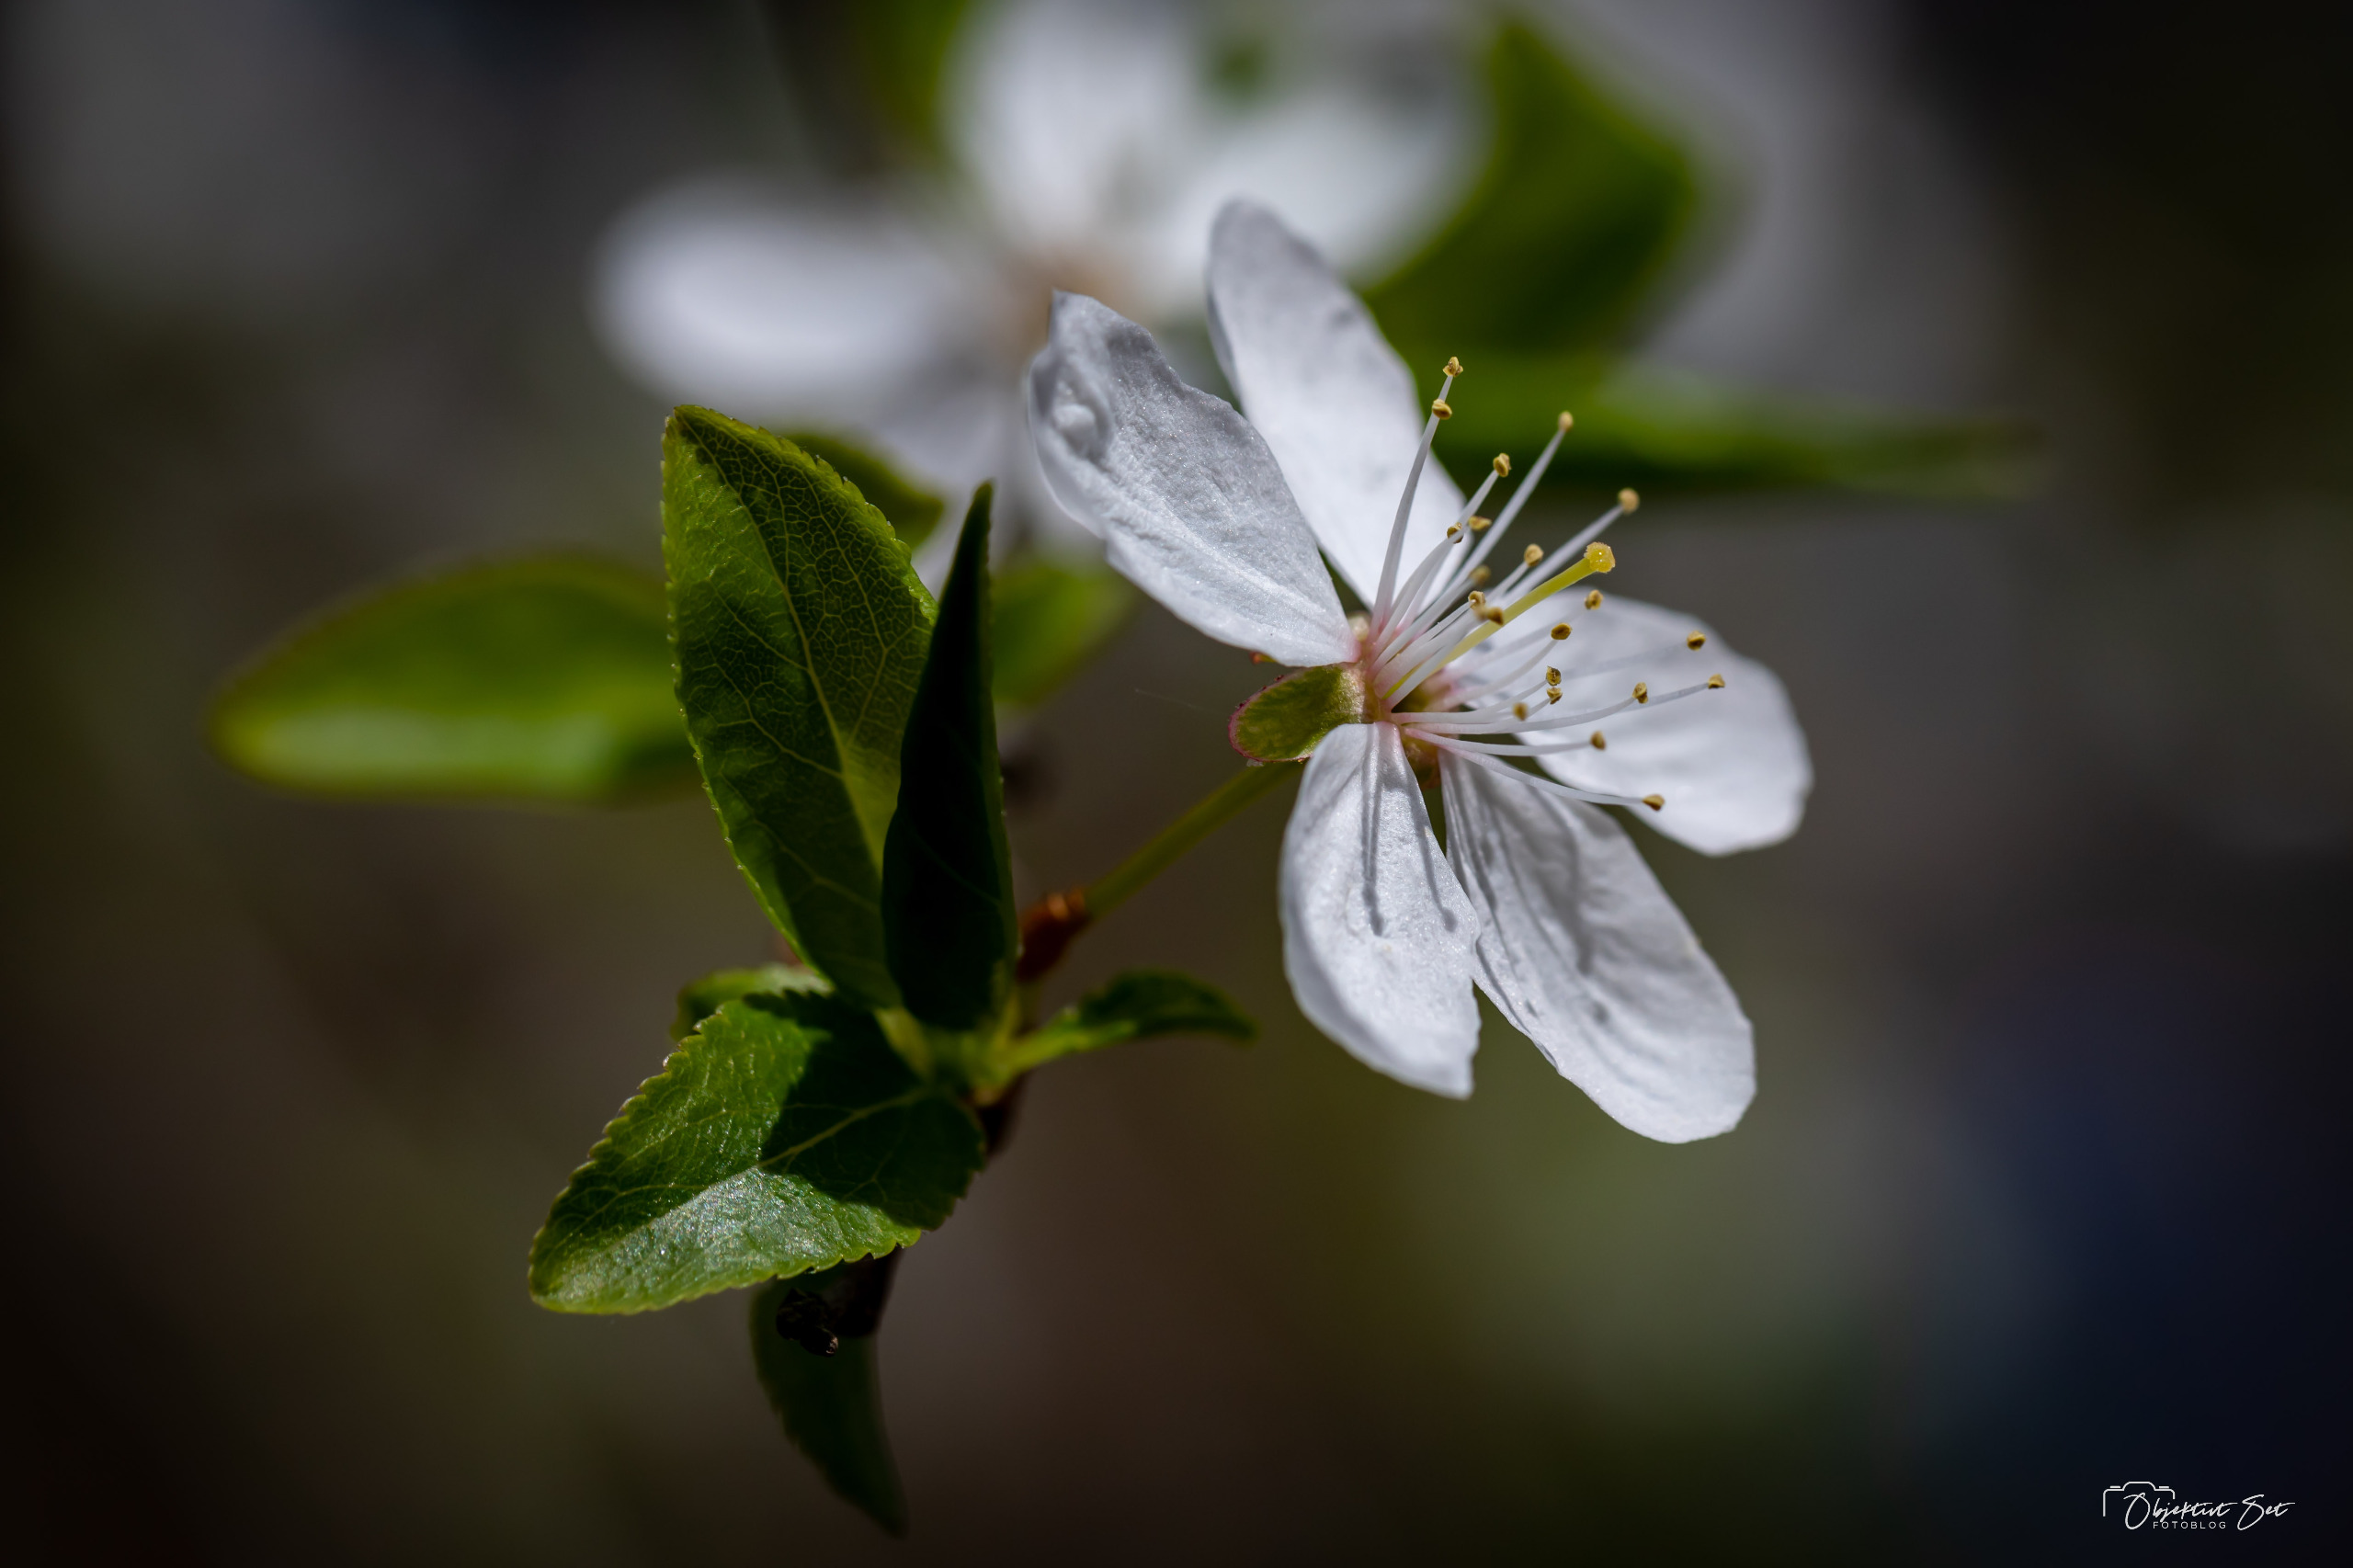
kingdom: Plantae
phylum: Tracheophyta
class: Magnoliopsida
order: Rosales
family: Rosaceae
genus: Prunus
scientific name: Prunus cerasifera
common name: Mirabel
